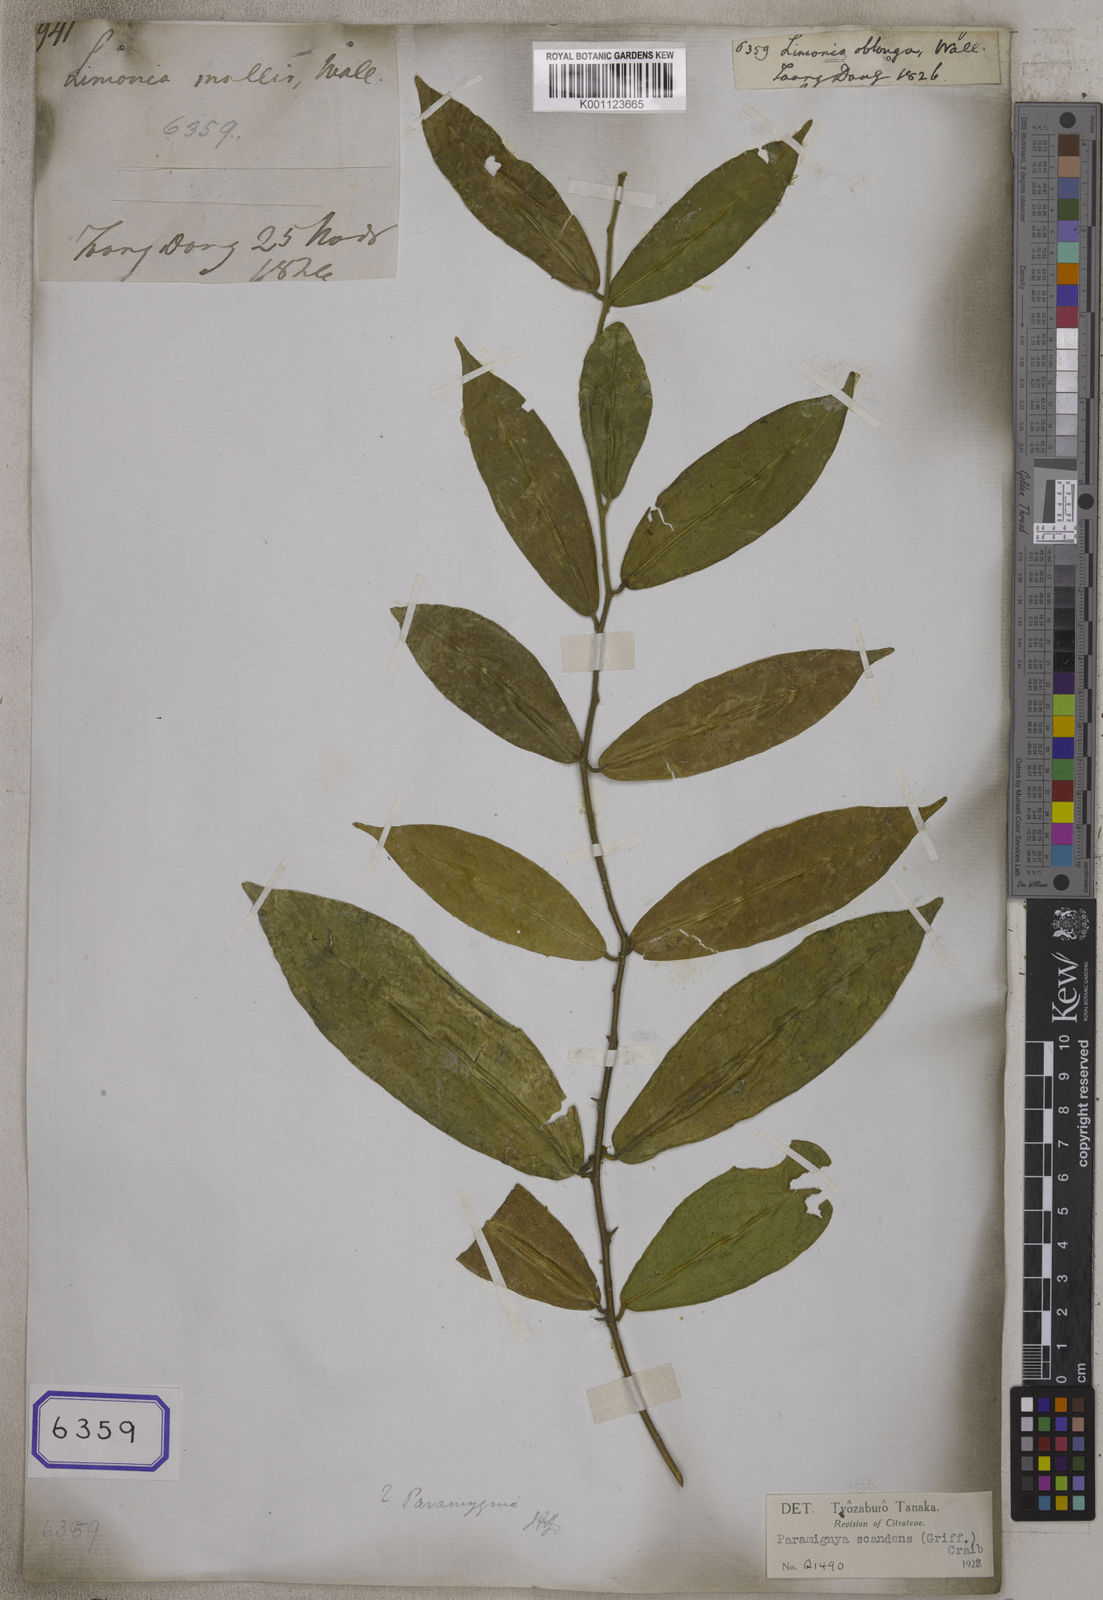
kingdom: Plantae
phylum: Tracheophyta
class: Magnoliopsida
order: Sapindales
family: Rutaceae
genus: Paramignya
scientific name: Paramignya scandens
